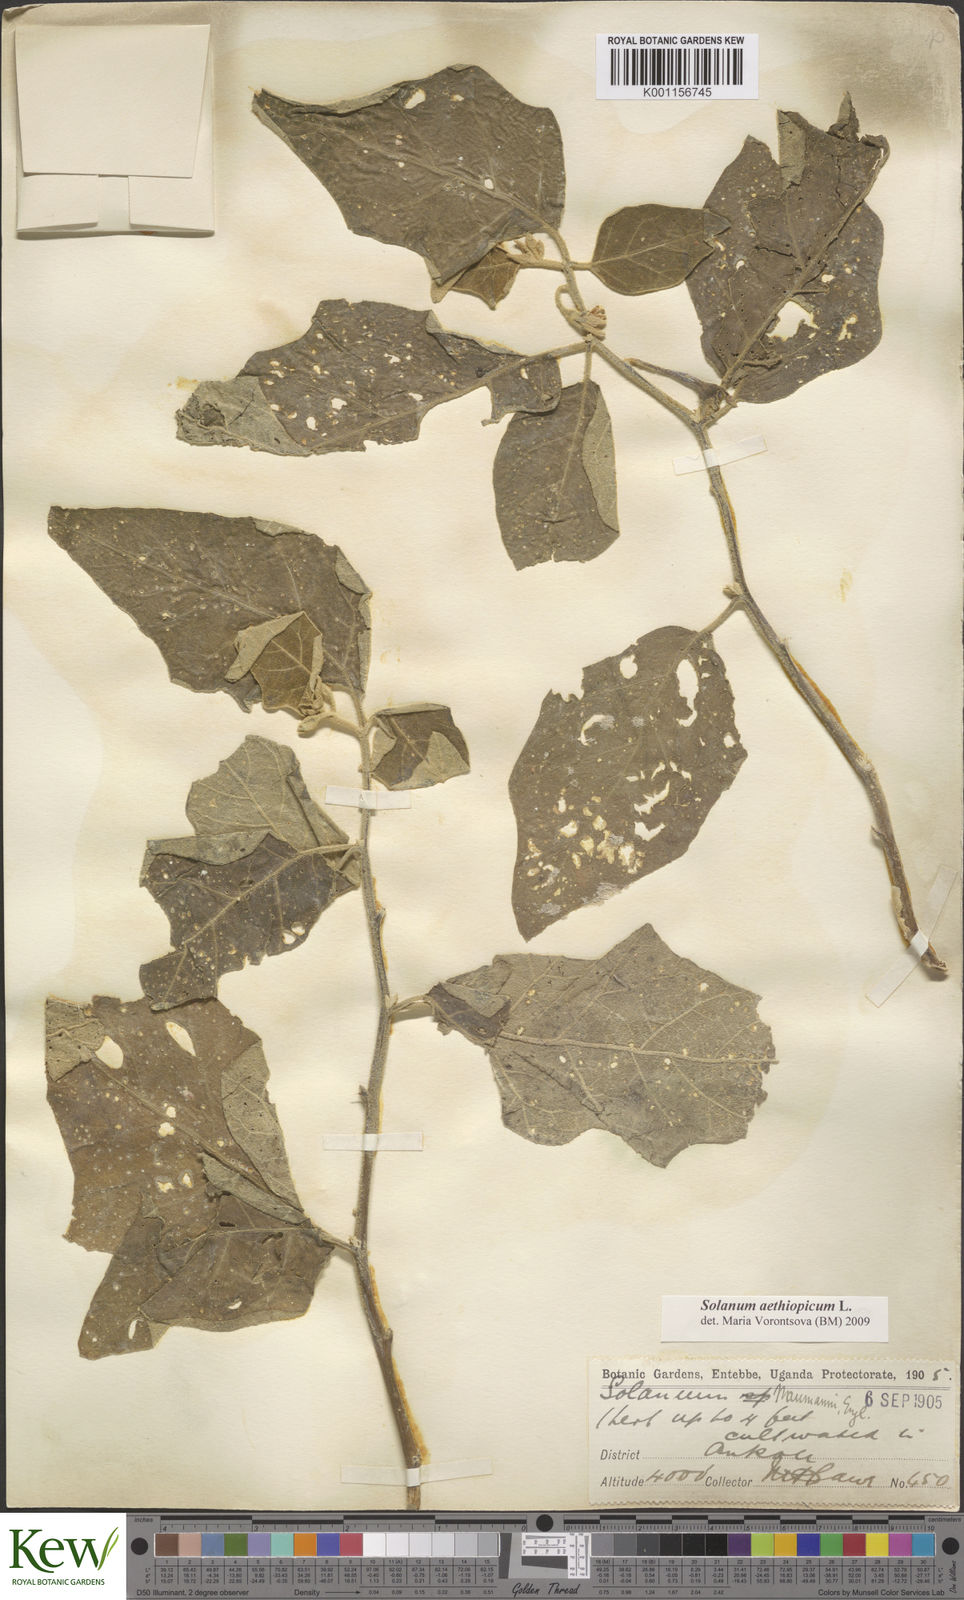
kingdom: Plantae
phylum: Tracheophyta
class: Magnoliopsida
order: Solanales
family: Solanaceae
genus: Solanum
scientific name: Solanum aethiopicum
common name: Gilo
